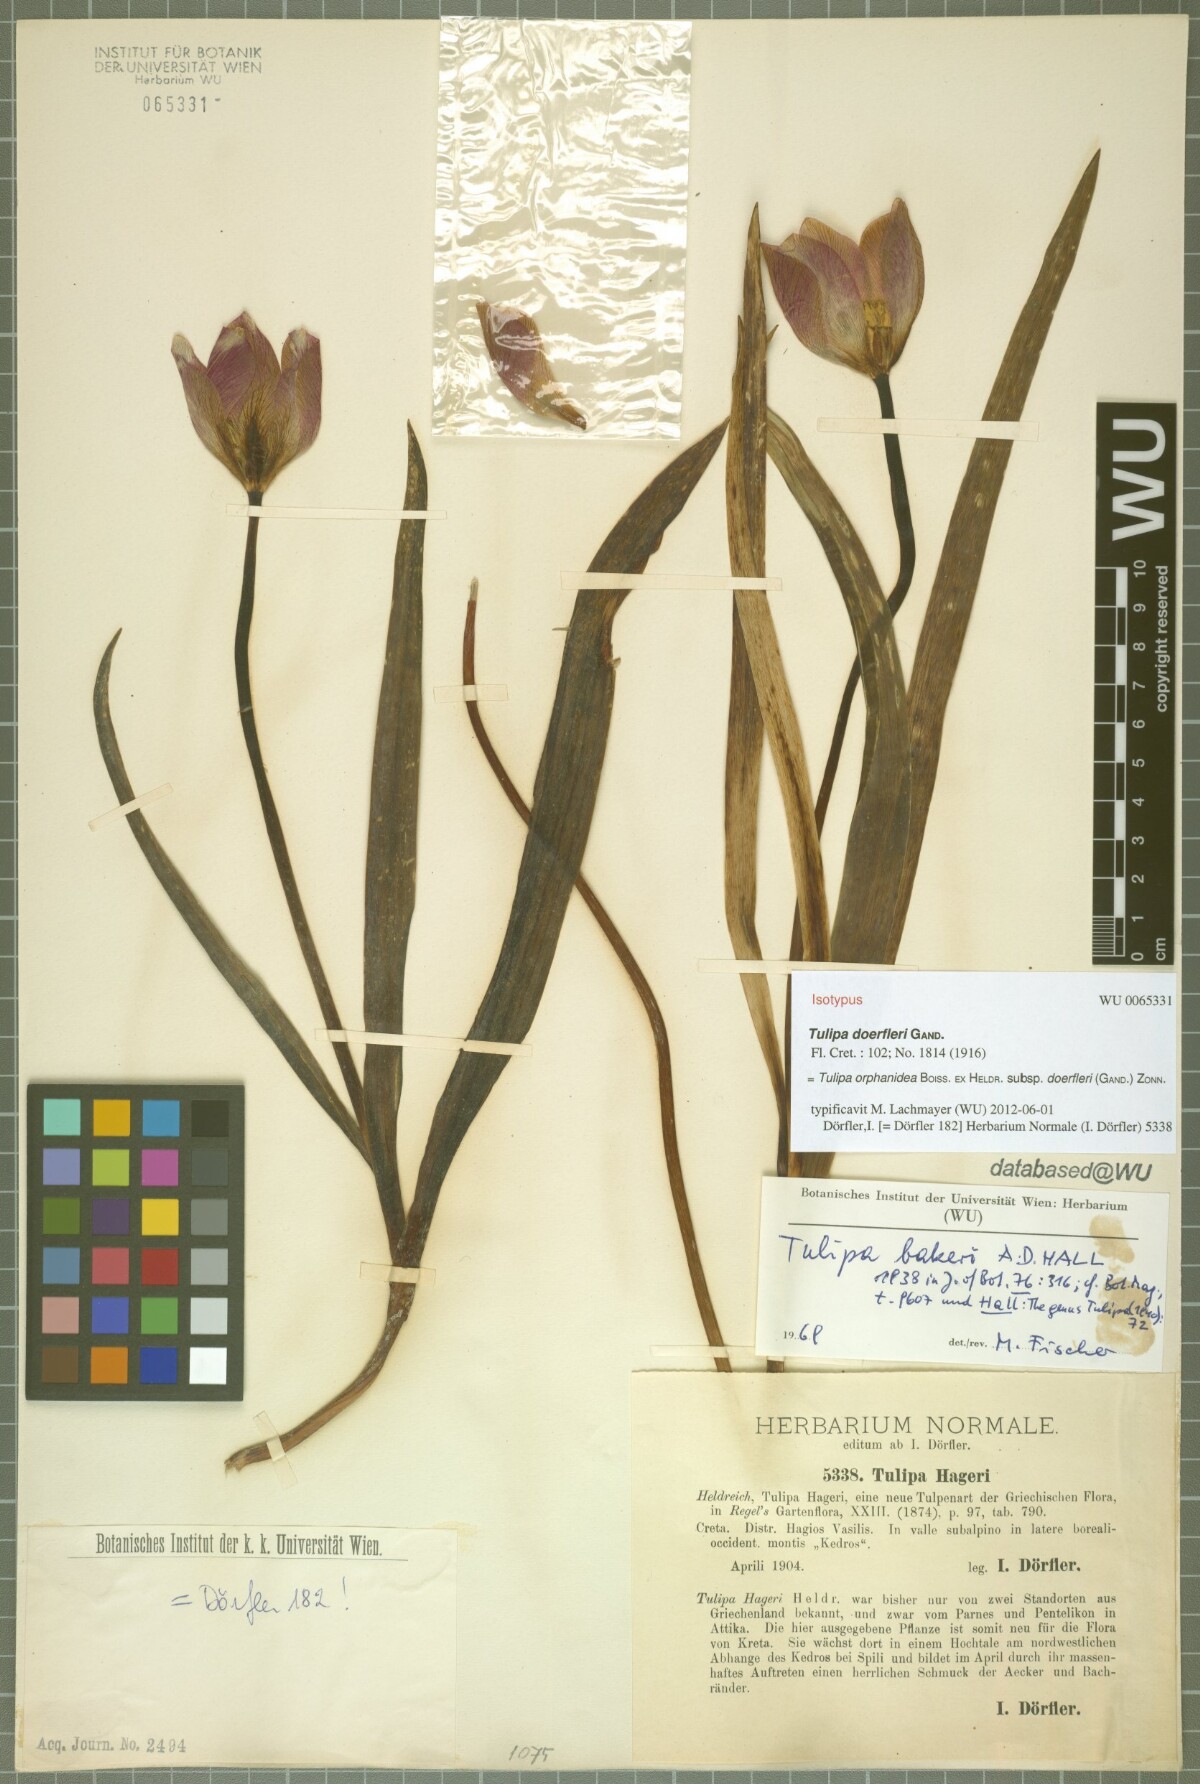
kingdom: Plantae
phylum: Tracheophyta
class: Liliopsida
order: Liliales
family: Liliaceae
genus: Tulipa
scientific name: Tulipa orphanidea
